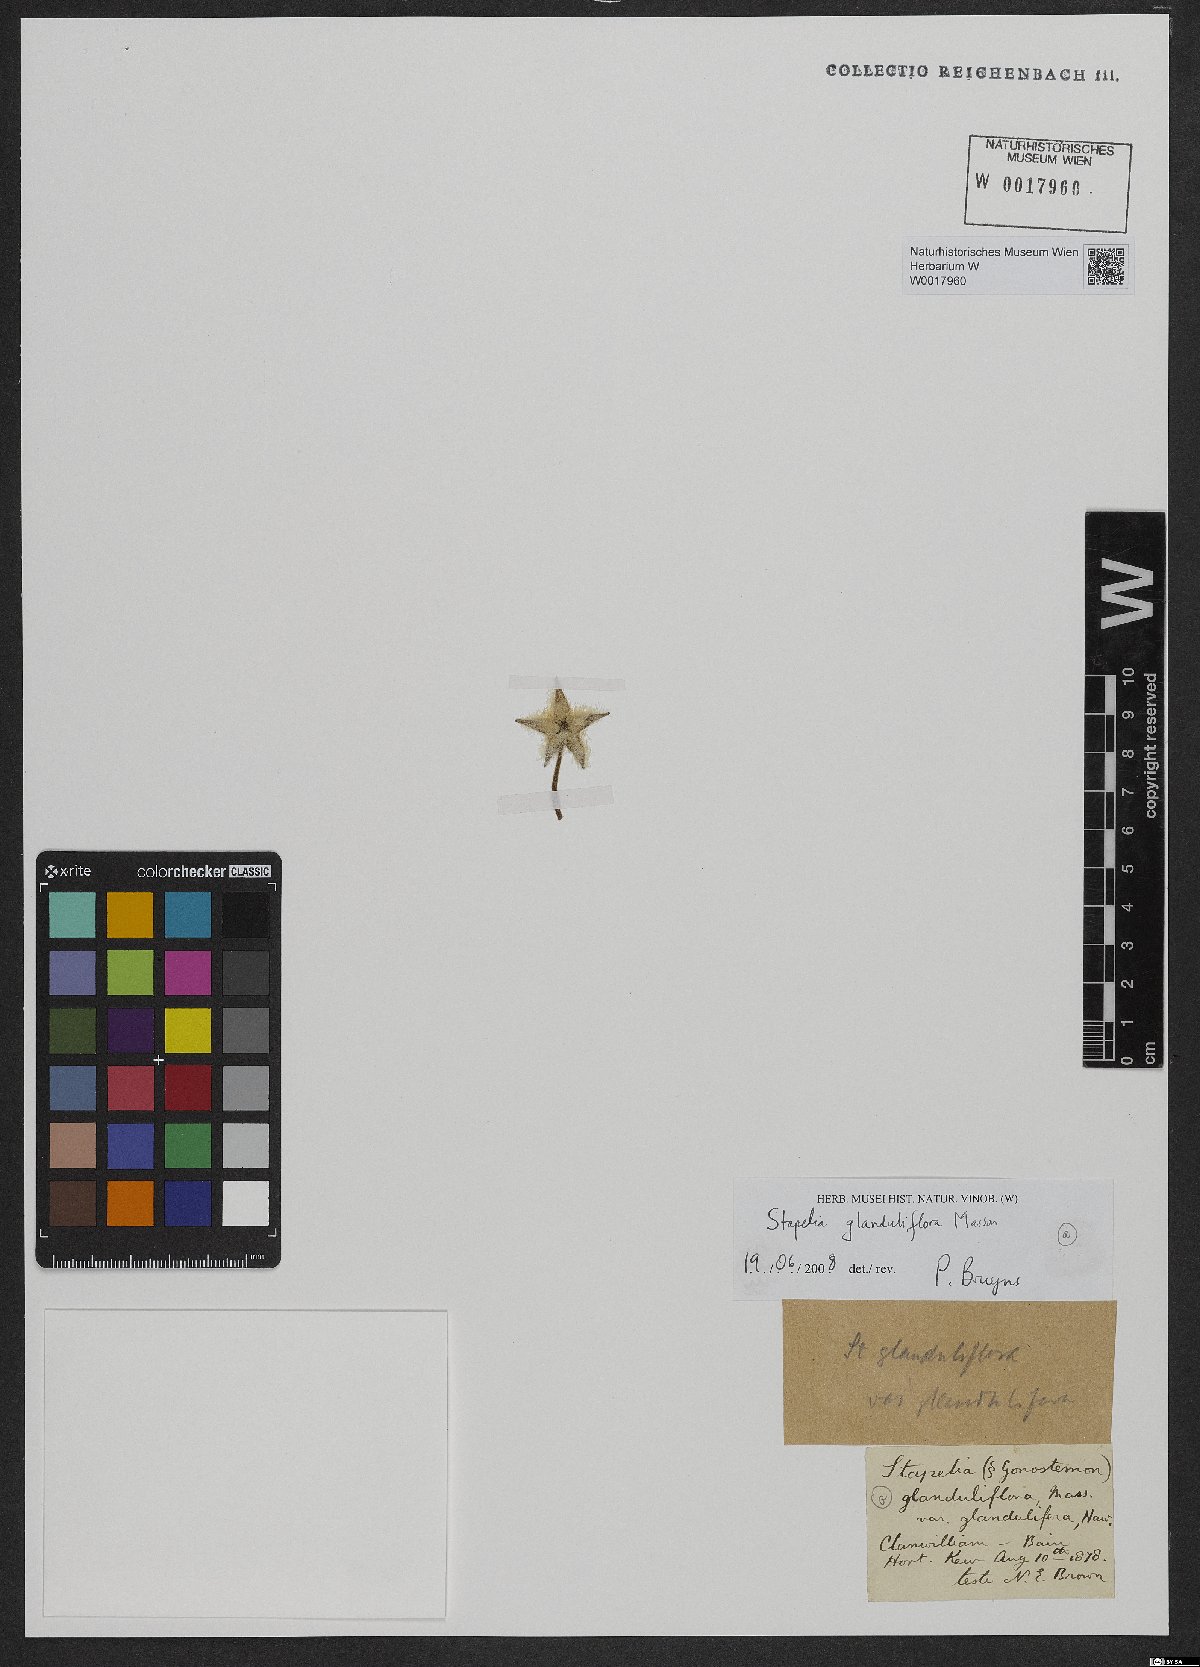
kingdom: Plantae
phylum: Tracheophyta
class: Magnoliopsida
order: Gentianales
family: Apocynaceae
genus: Ceropegia
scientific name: Ceropegia glanduliflora
